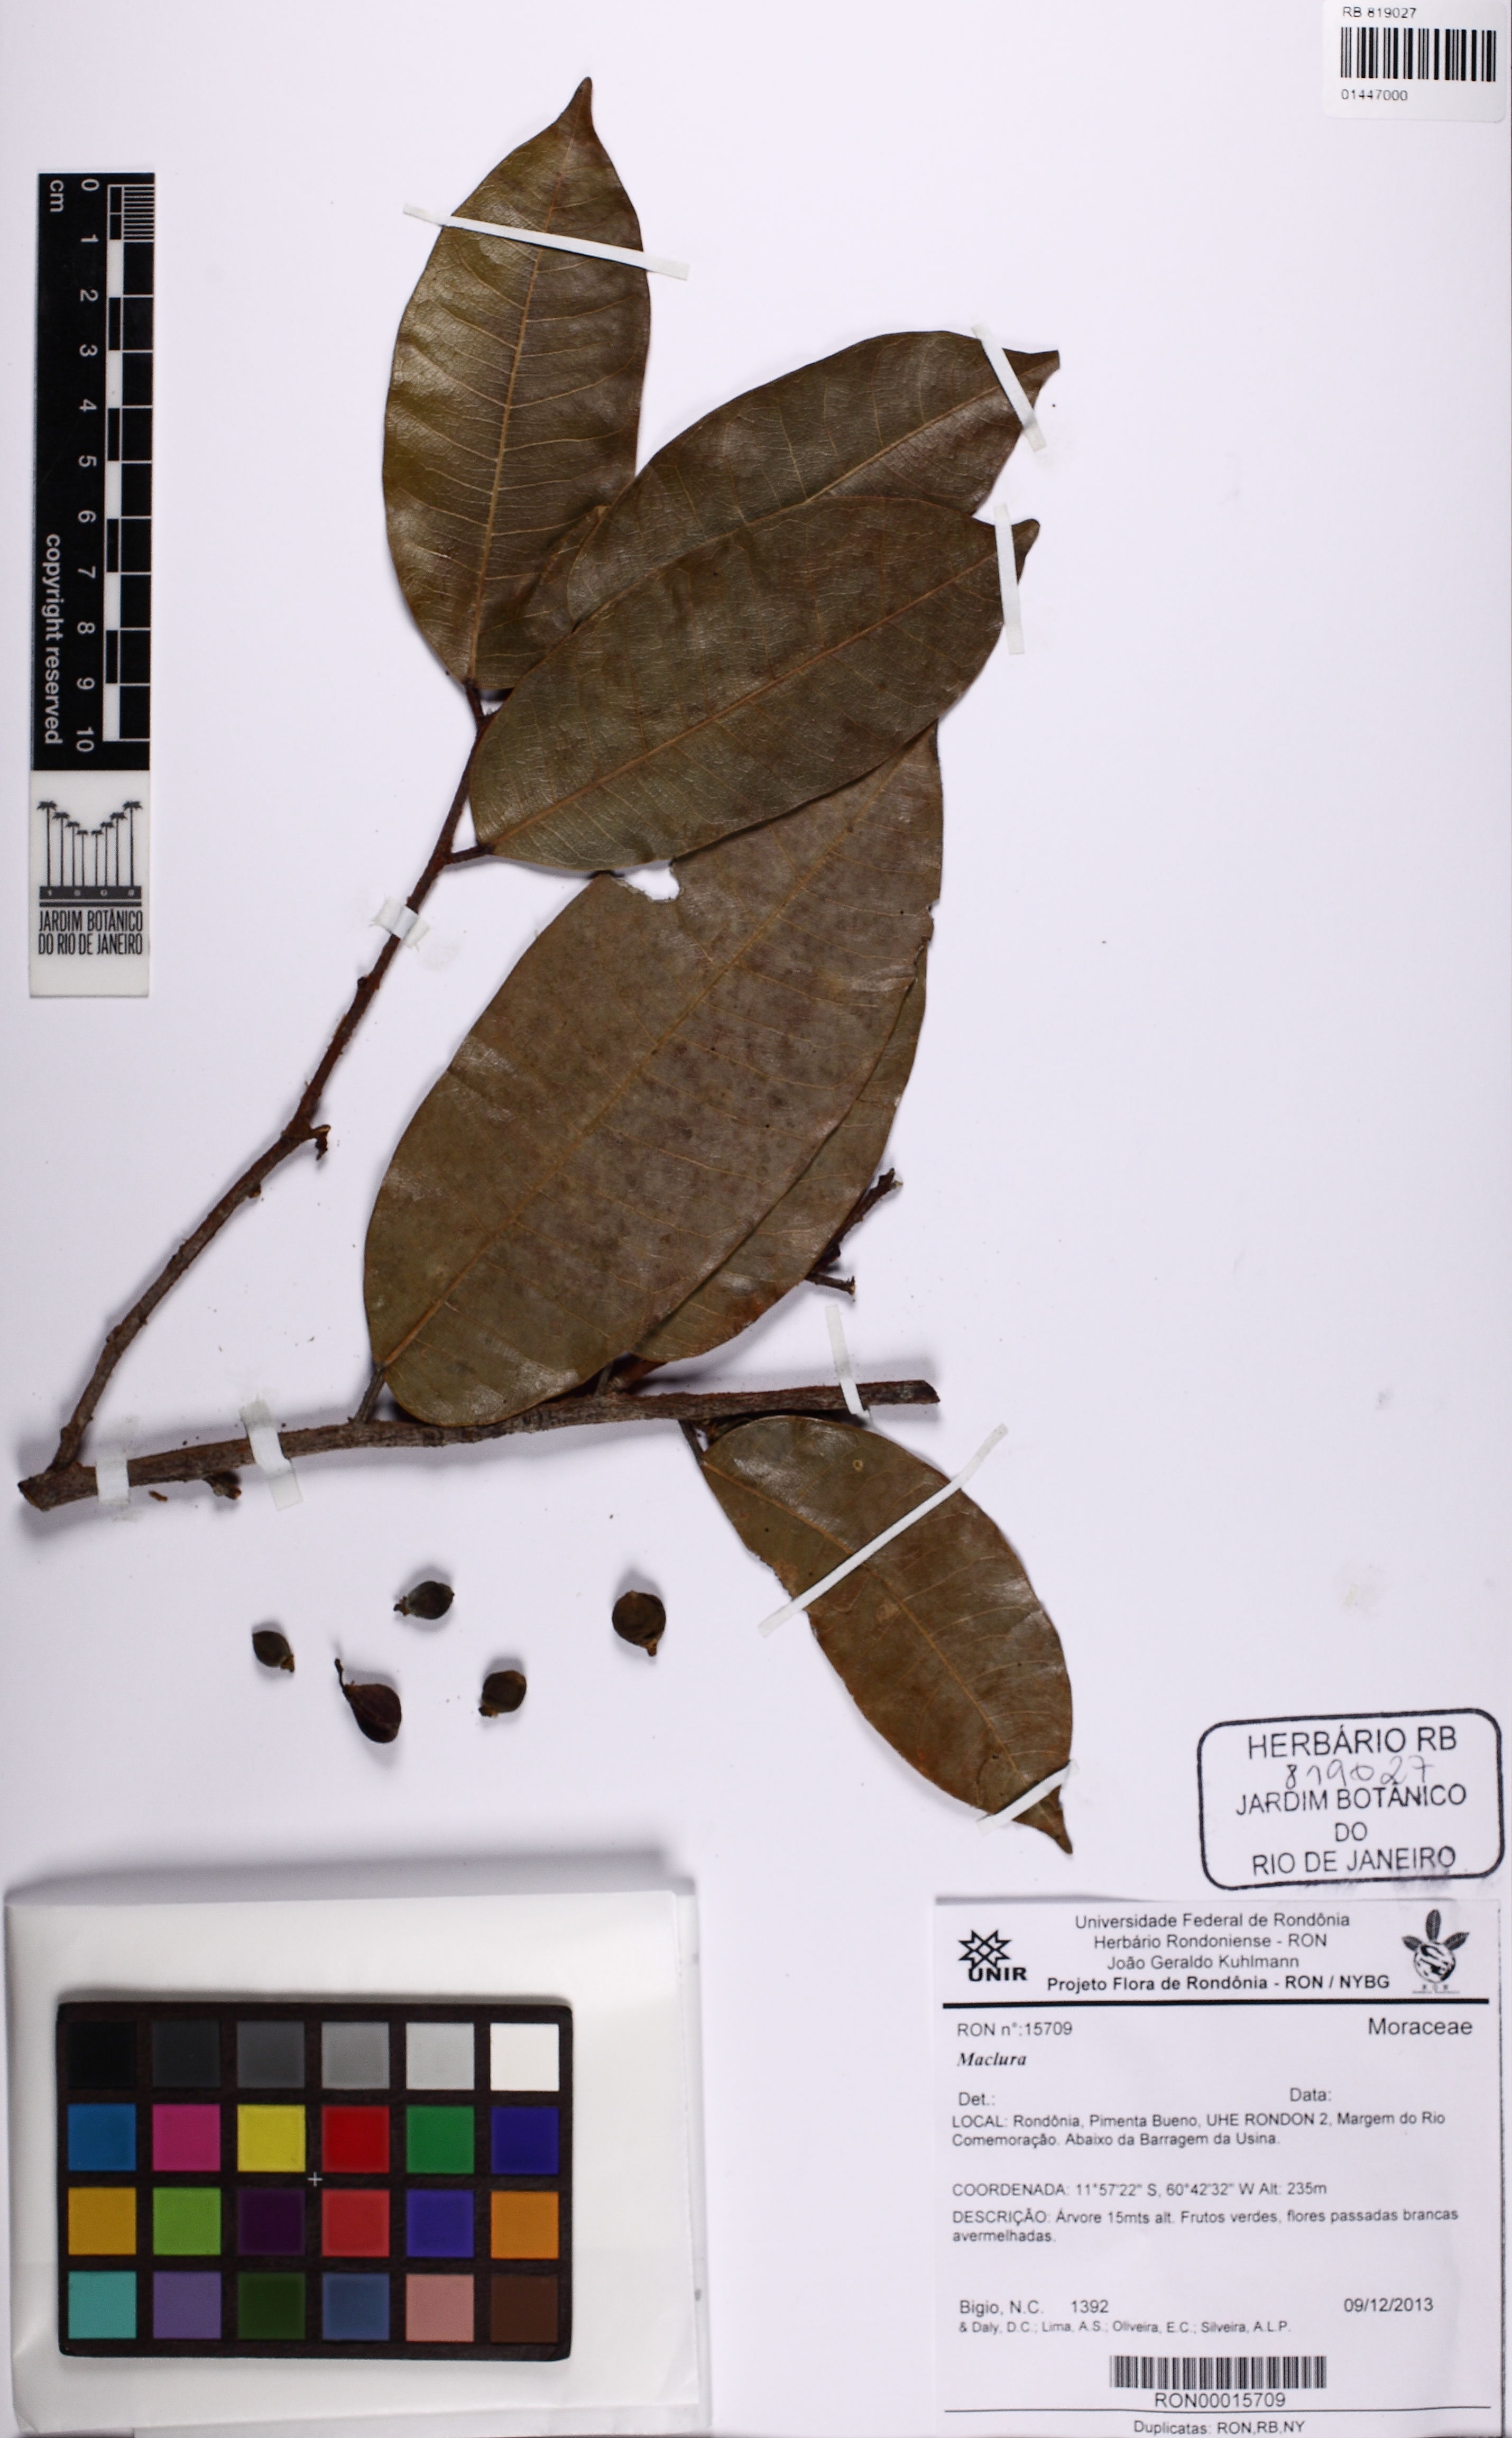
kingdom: Plantae
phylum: Tracheophyta
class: Magnoliopsida
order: Rosales
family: Moraceae
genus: Maclura
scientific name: Maclura
